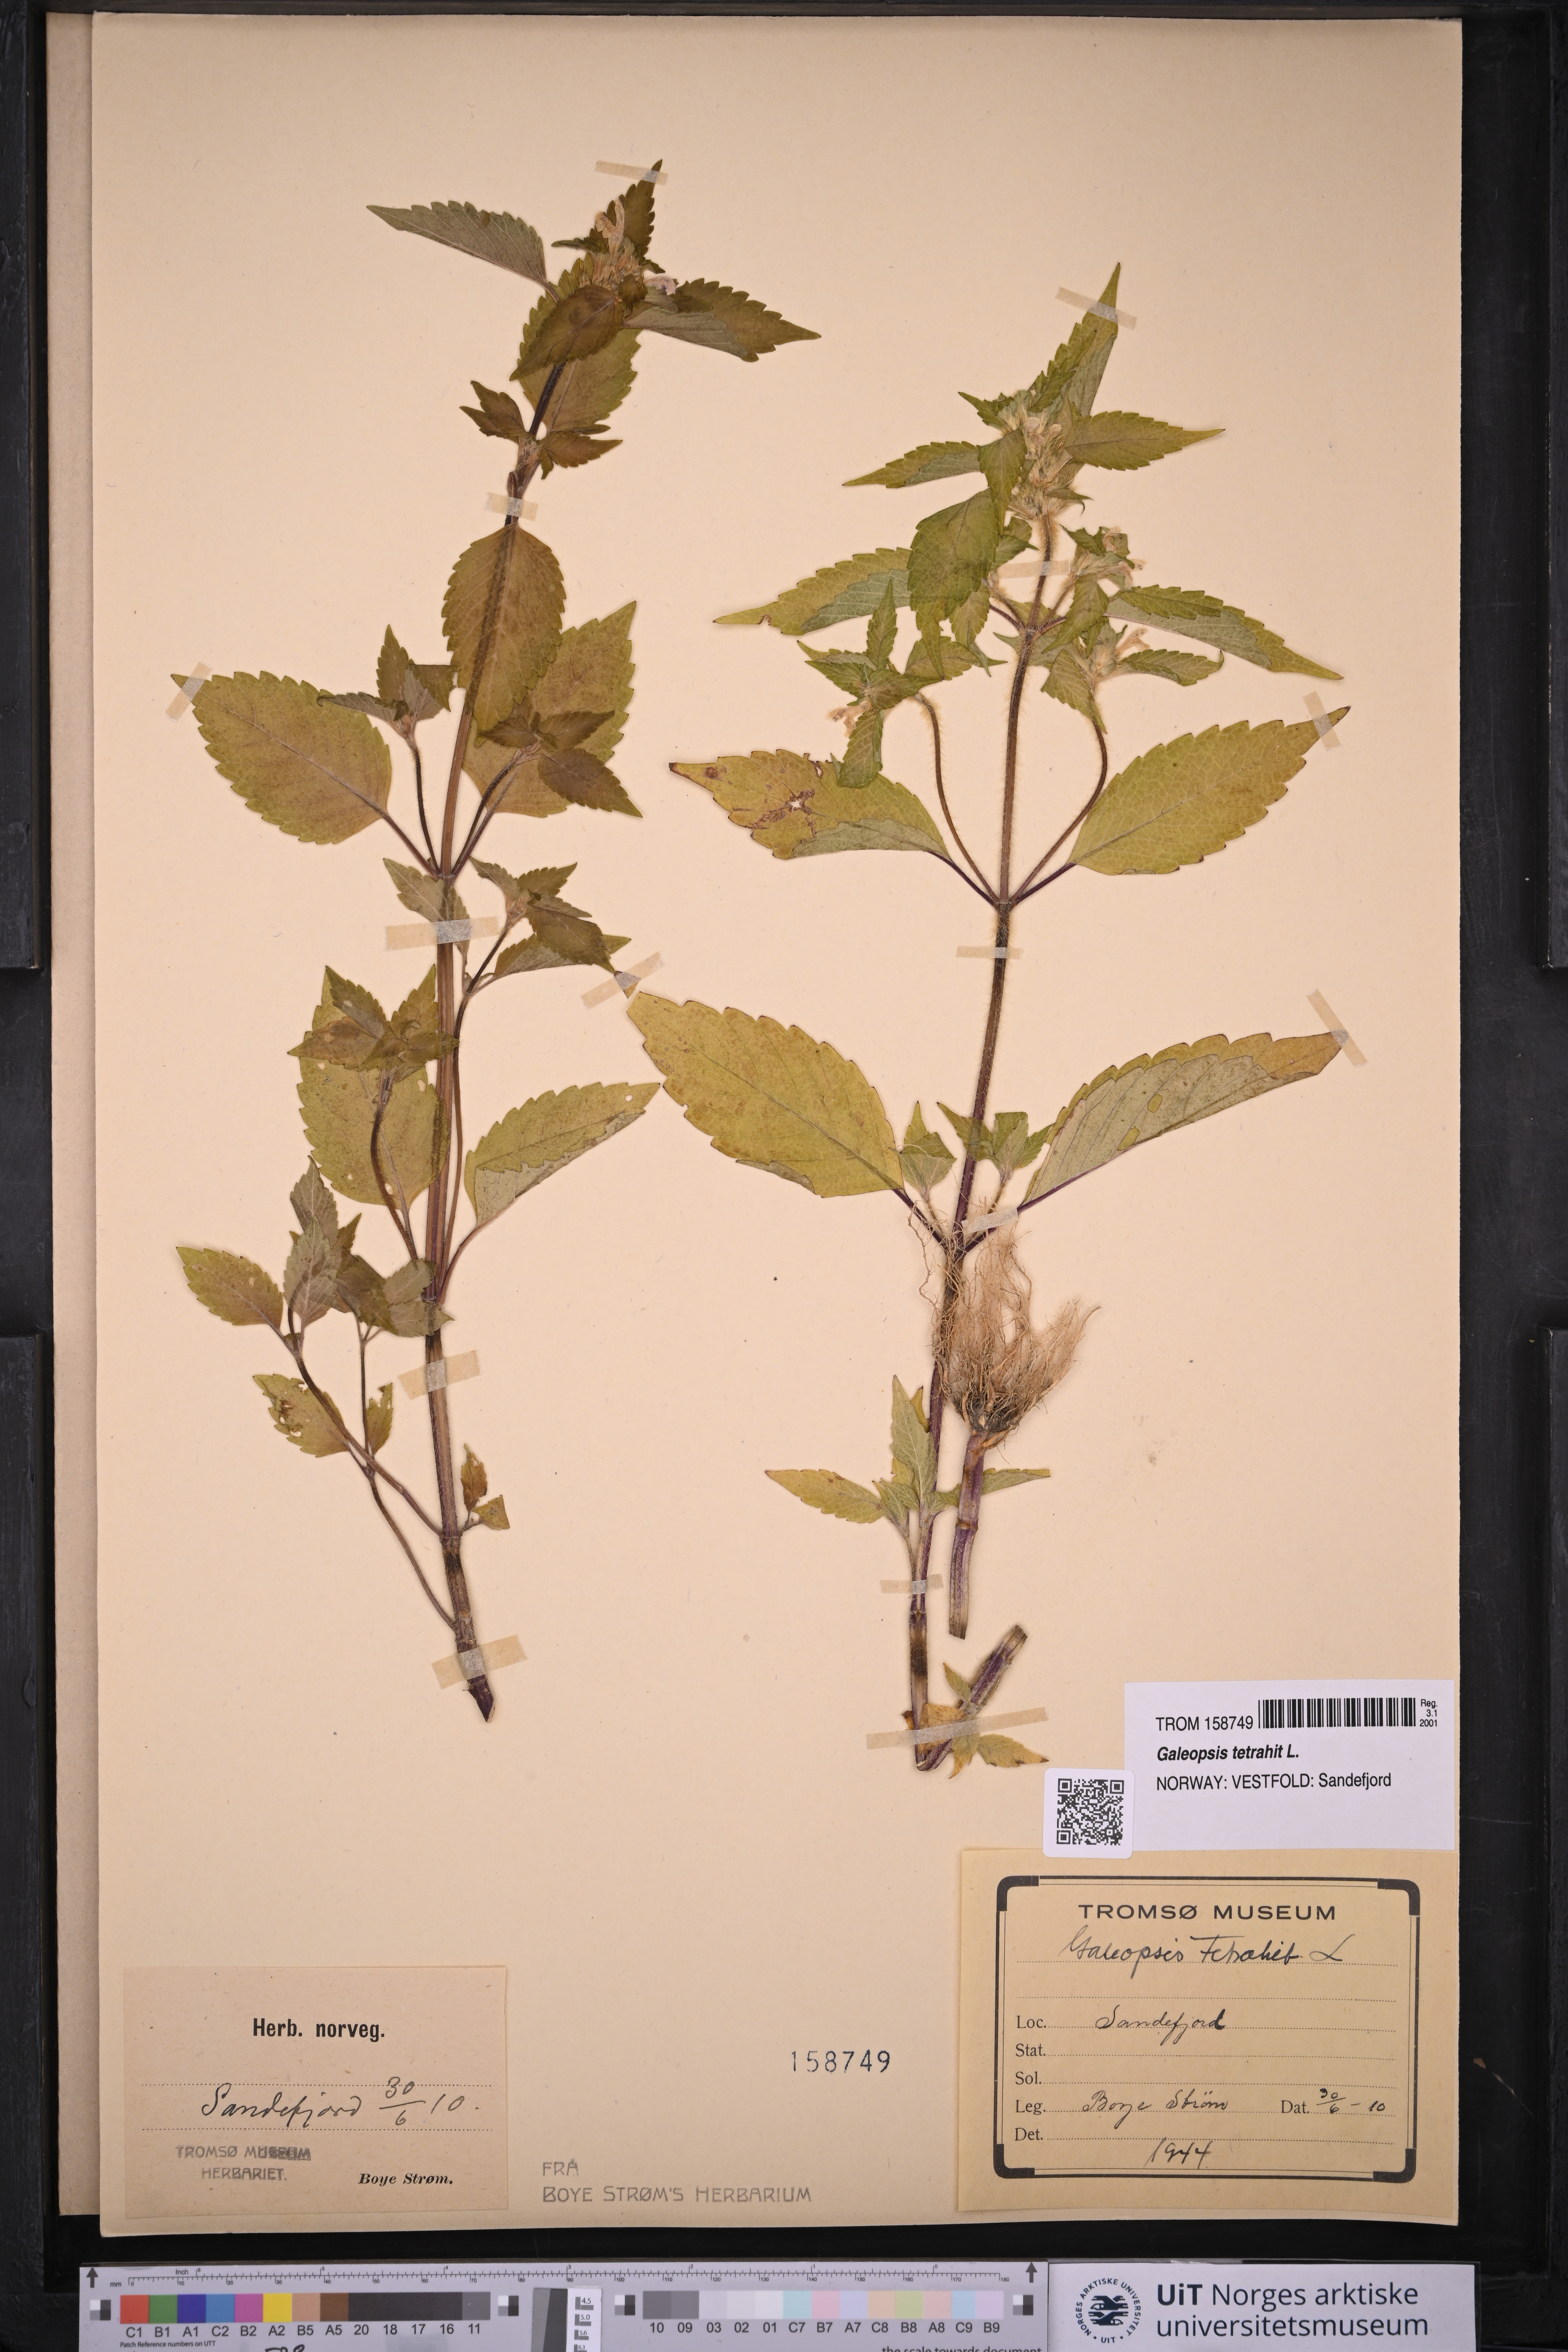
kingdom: Plantae
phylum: Tracheophyta
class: Magnoliopsida
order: Lamiales
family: Lamiaceae
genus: Galeopsis
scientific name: Galeopsis tetrahit
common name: Common hemp-nettle
